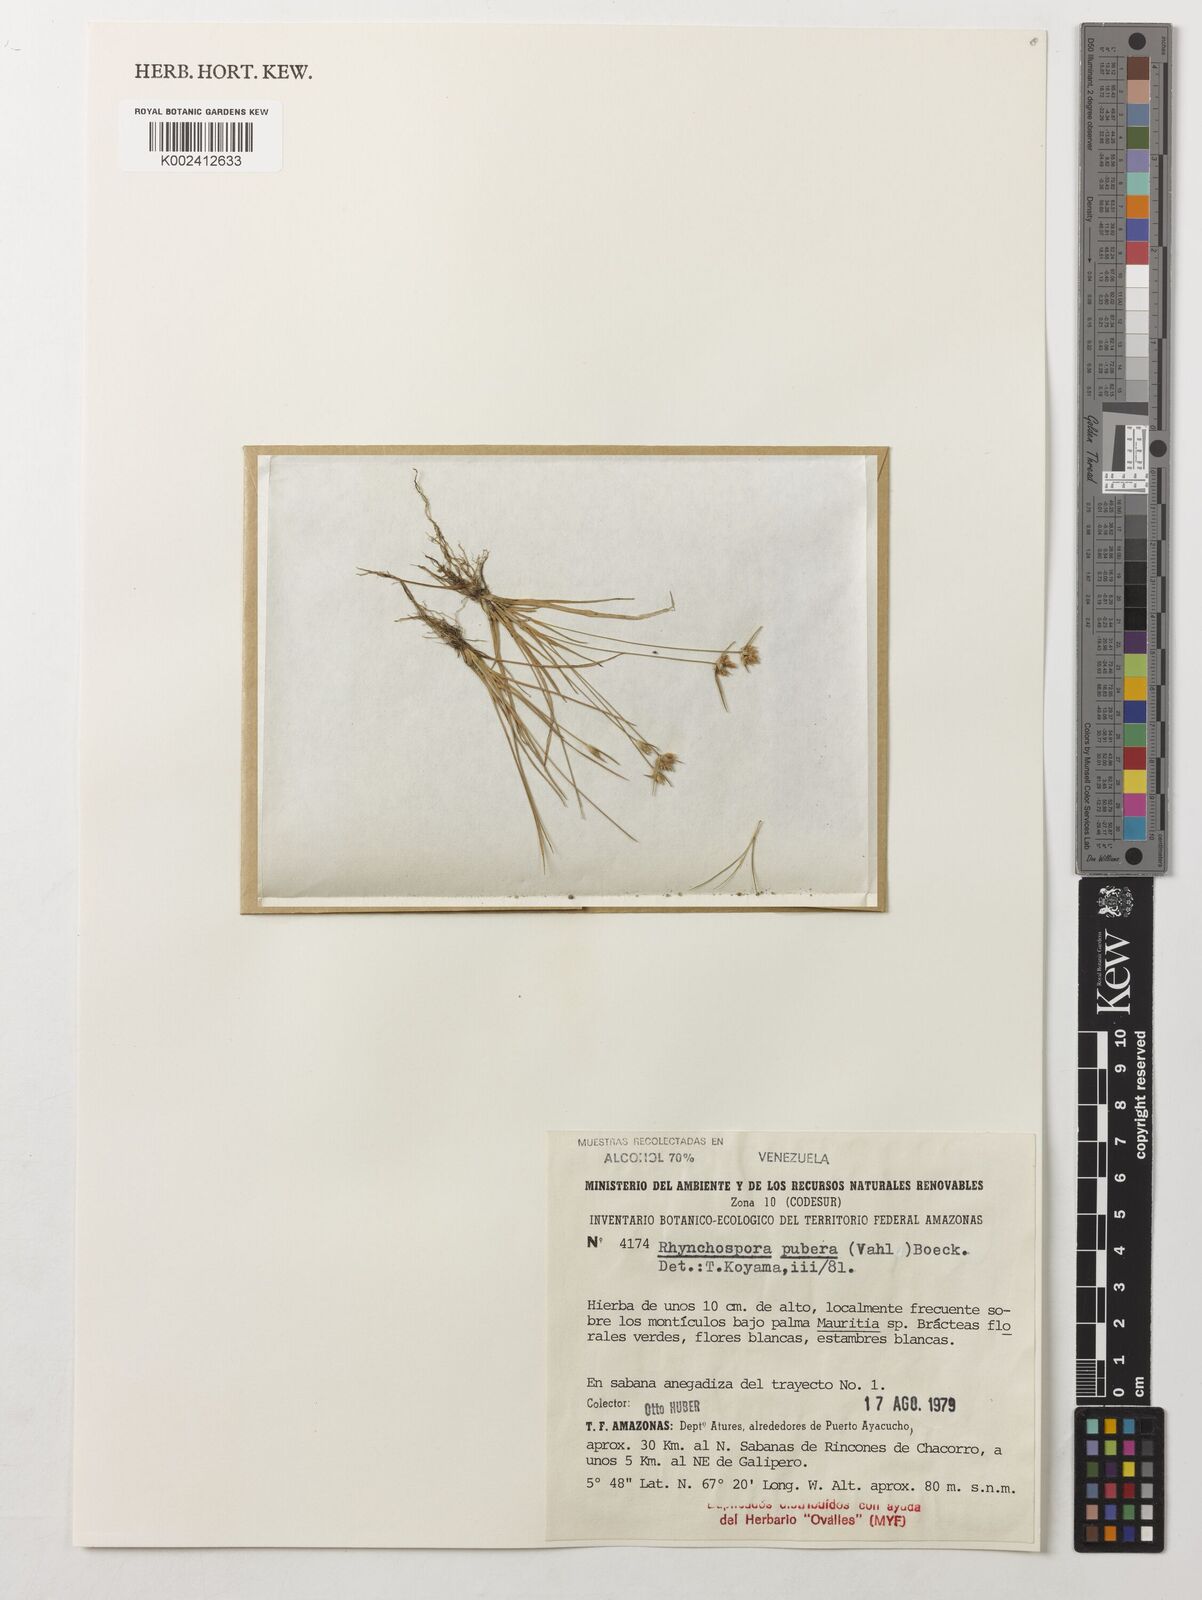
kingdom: Plantae
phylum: Tracheophyta
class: Liliopsida
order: Poales
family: Cyperaceae
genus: Rhynchospora
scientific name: Rhynchospora pubera
